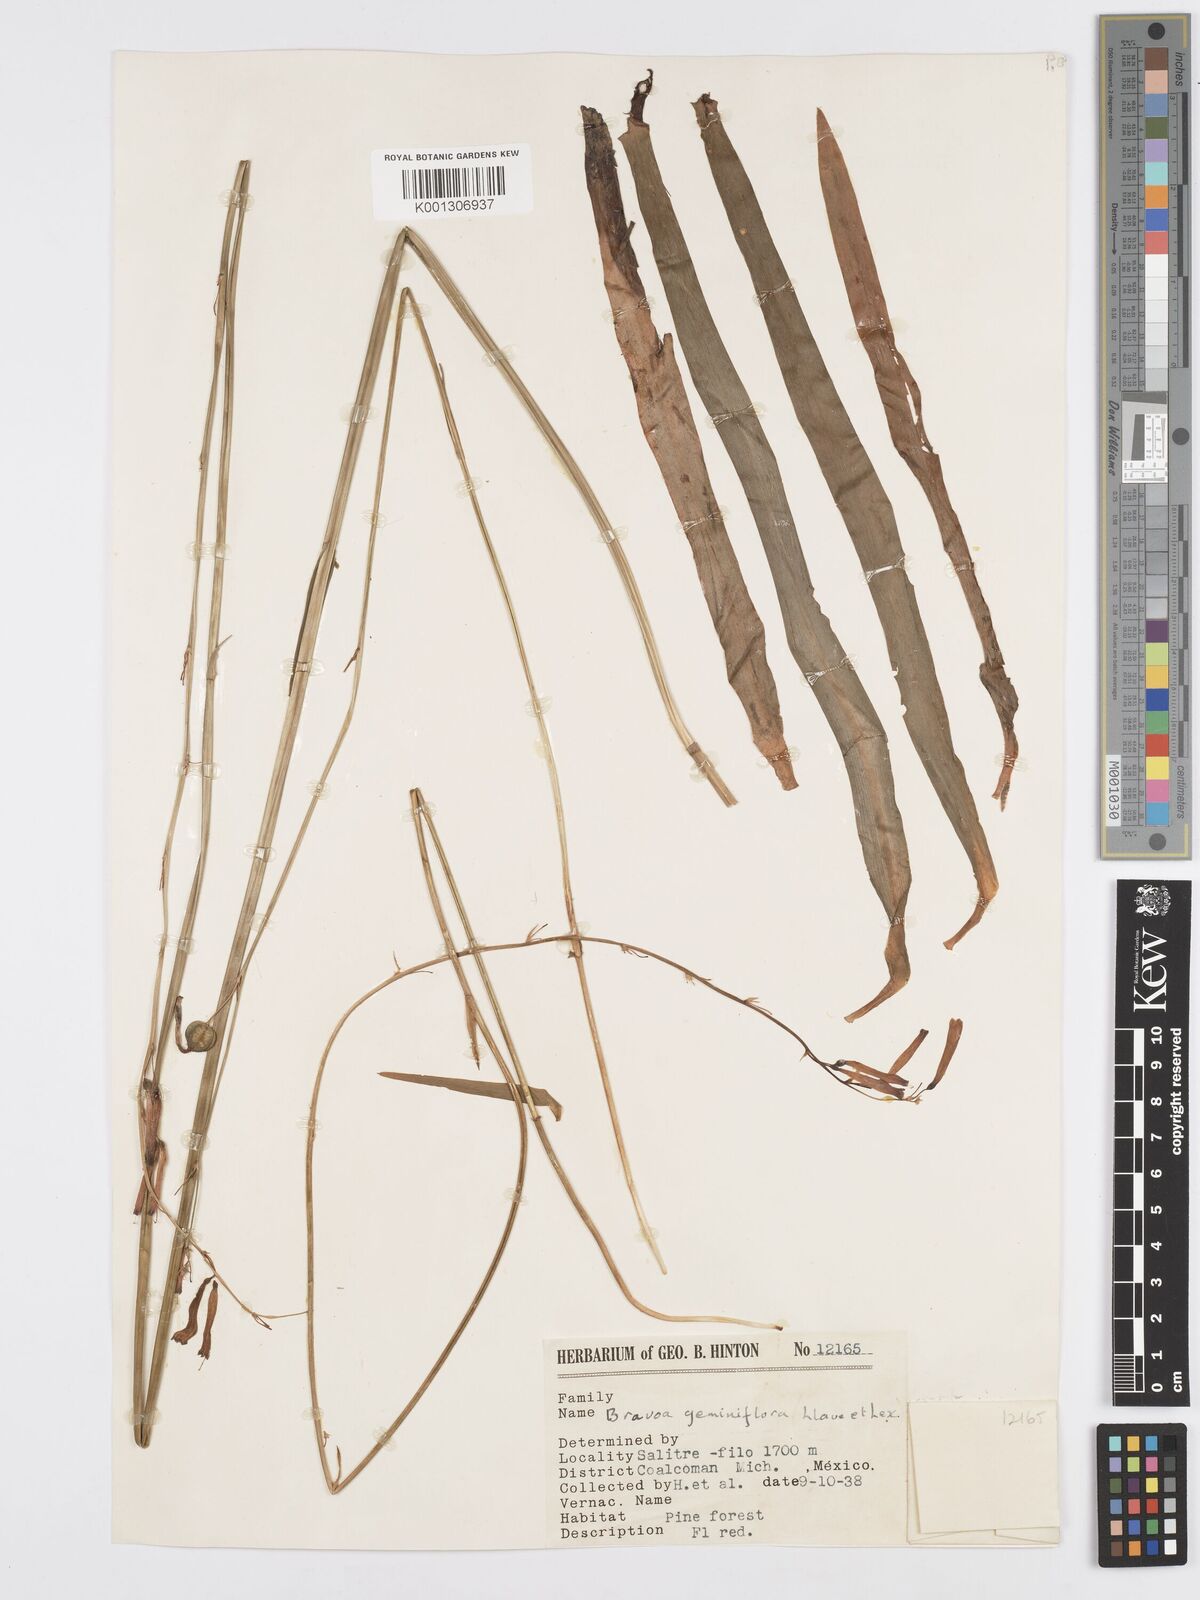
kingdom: Plantae
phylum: Tracheophyta
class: Liliopsida
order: Asparagales
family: Asparagaceae
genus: Agave
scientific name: Agave coetocapnia
